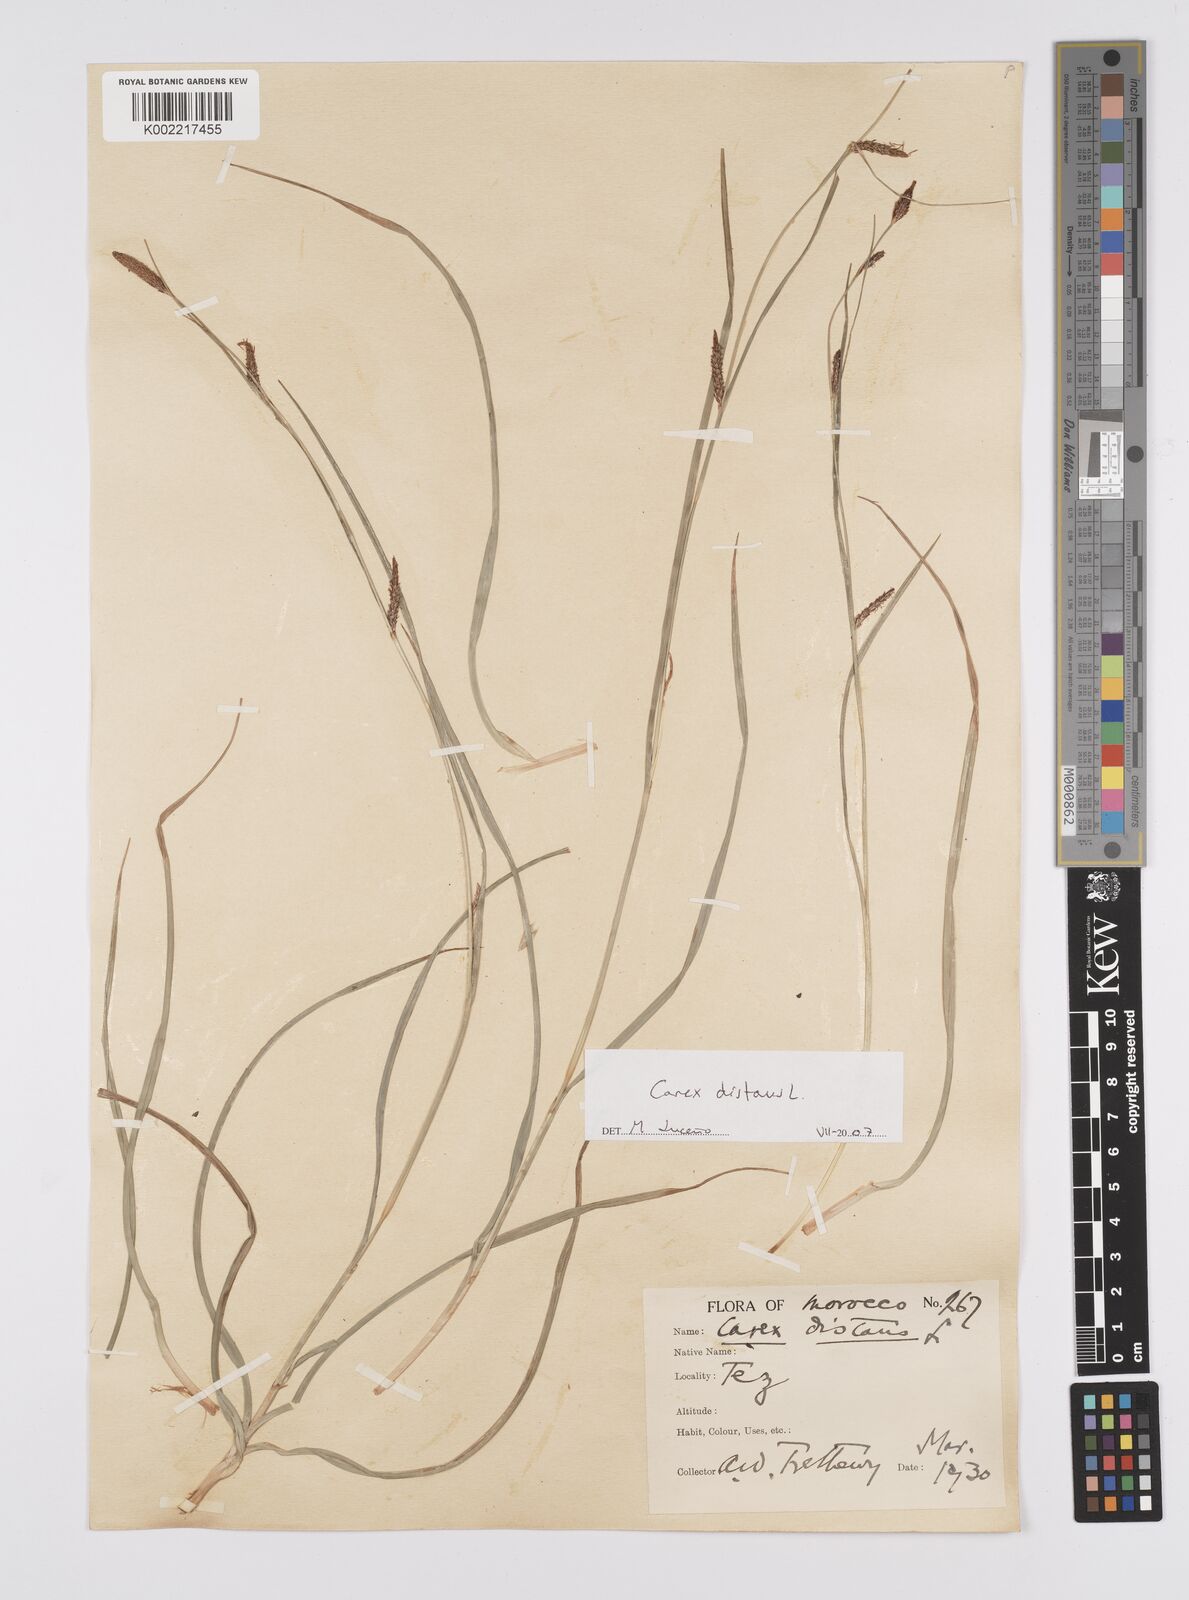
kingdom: Plantae
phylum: Tracheophyta
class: Liliopsida
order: Poales
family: Cyperaceae
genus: Carex
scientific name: Carex distans
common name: Distant sedge
